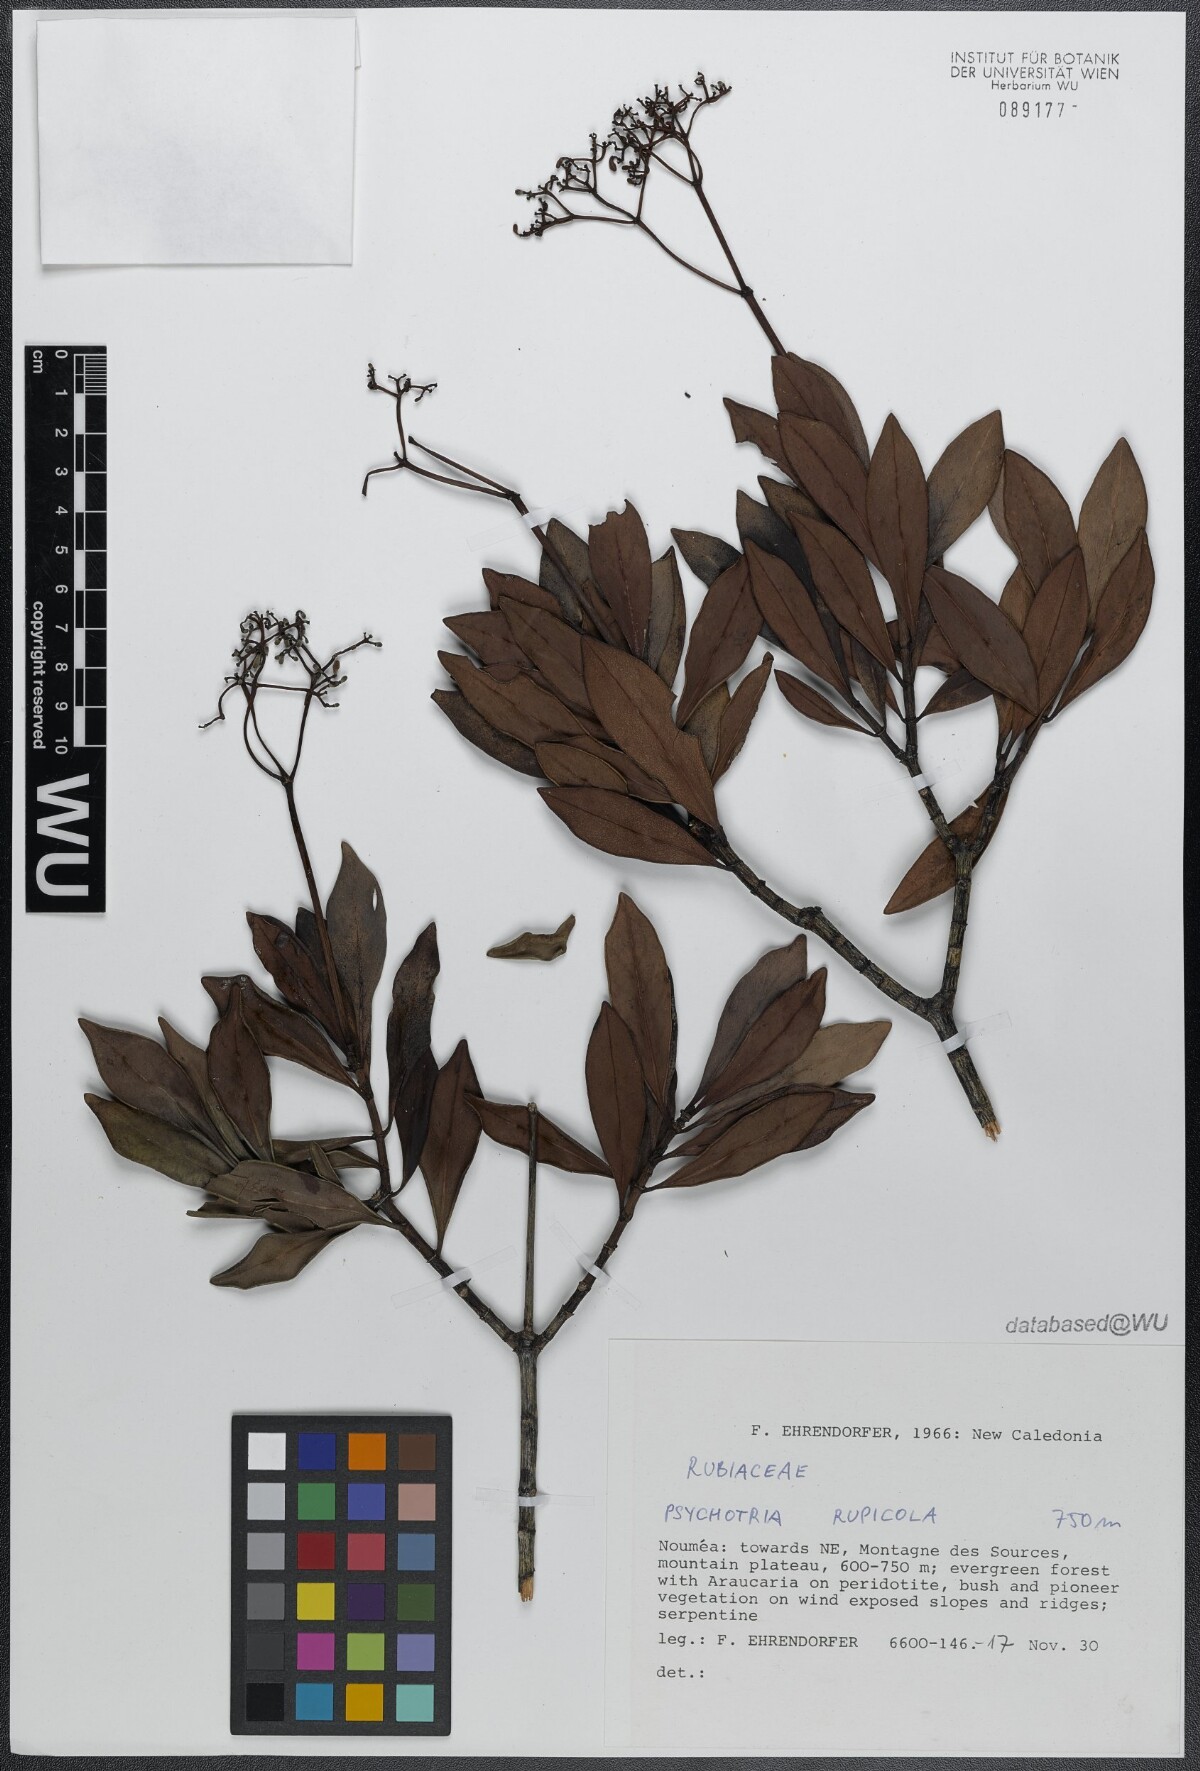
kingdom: Plantae
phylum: Tracheophyta
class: Magnoliopsida
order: Gentianales
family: Rubiaceae
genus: Psychotria
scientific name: Psychotria rupicola
